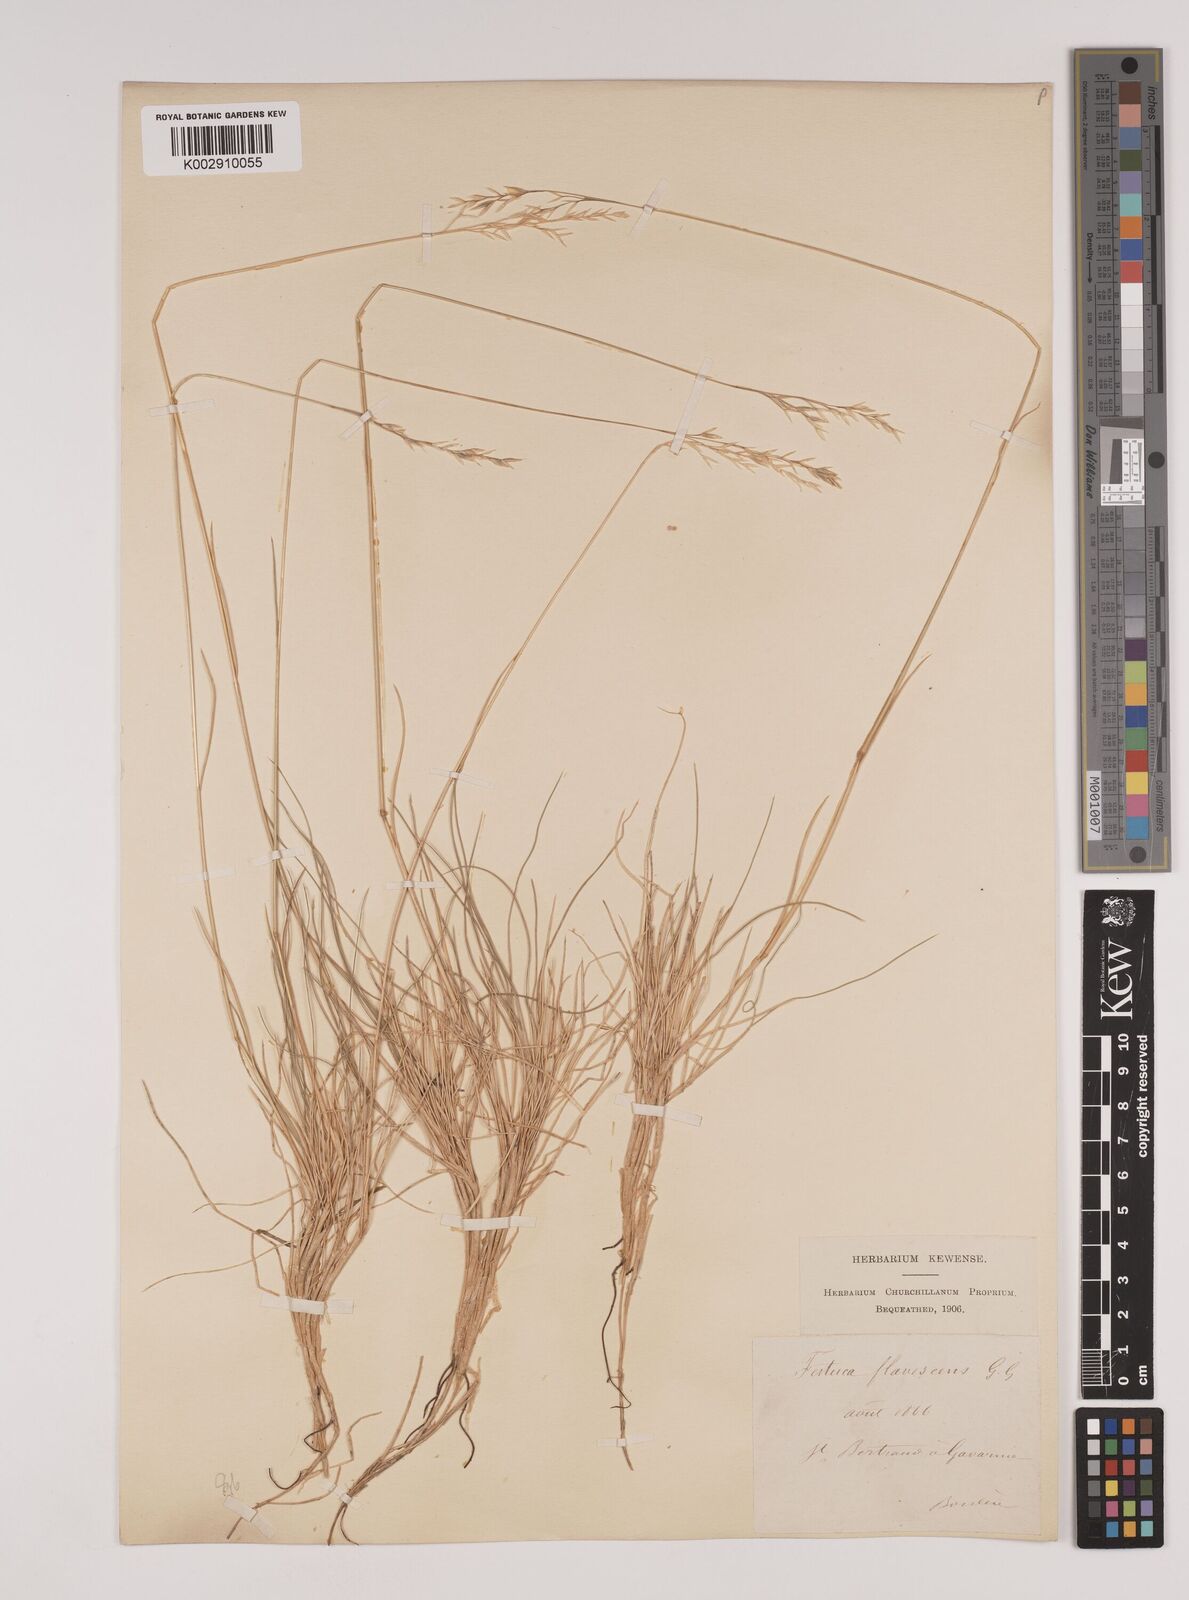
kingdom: Plantae
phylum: Tracheophyta
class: Liliopsida
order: Poales
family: Poaceae
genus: Festuca
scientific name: Festuca gautieri
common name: Spiky fescue
